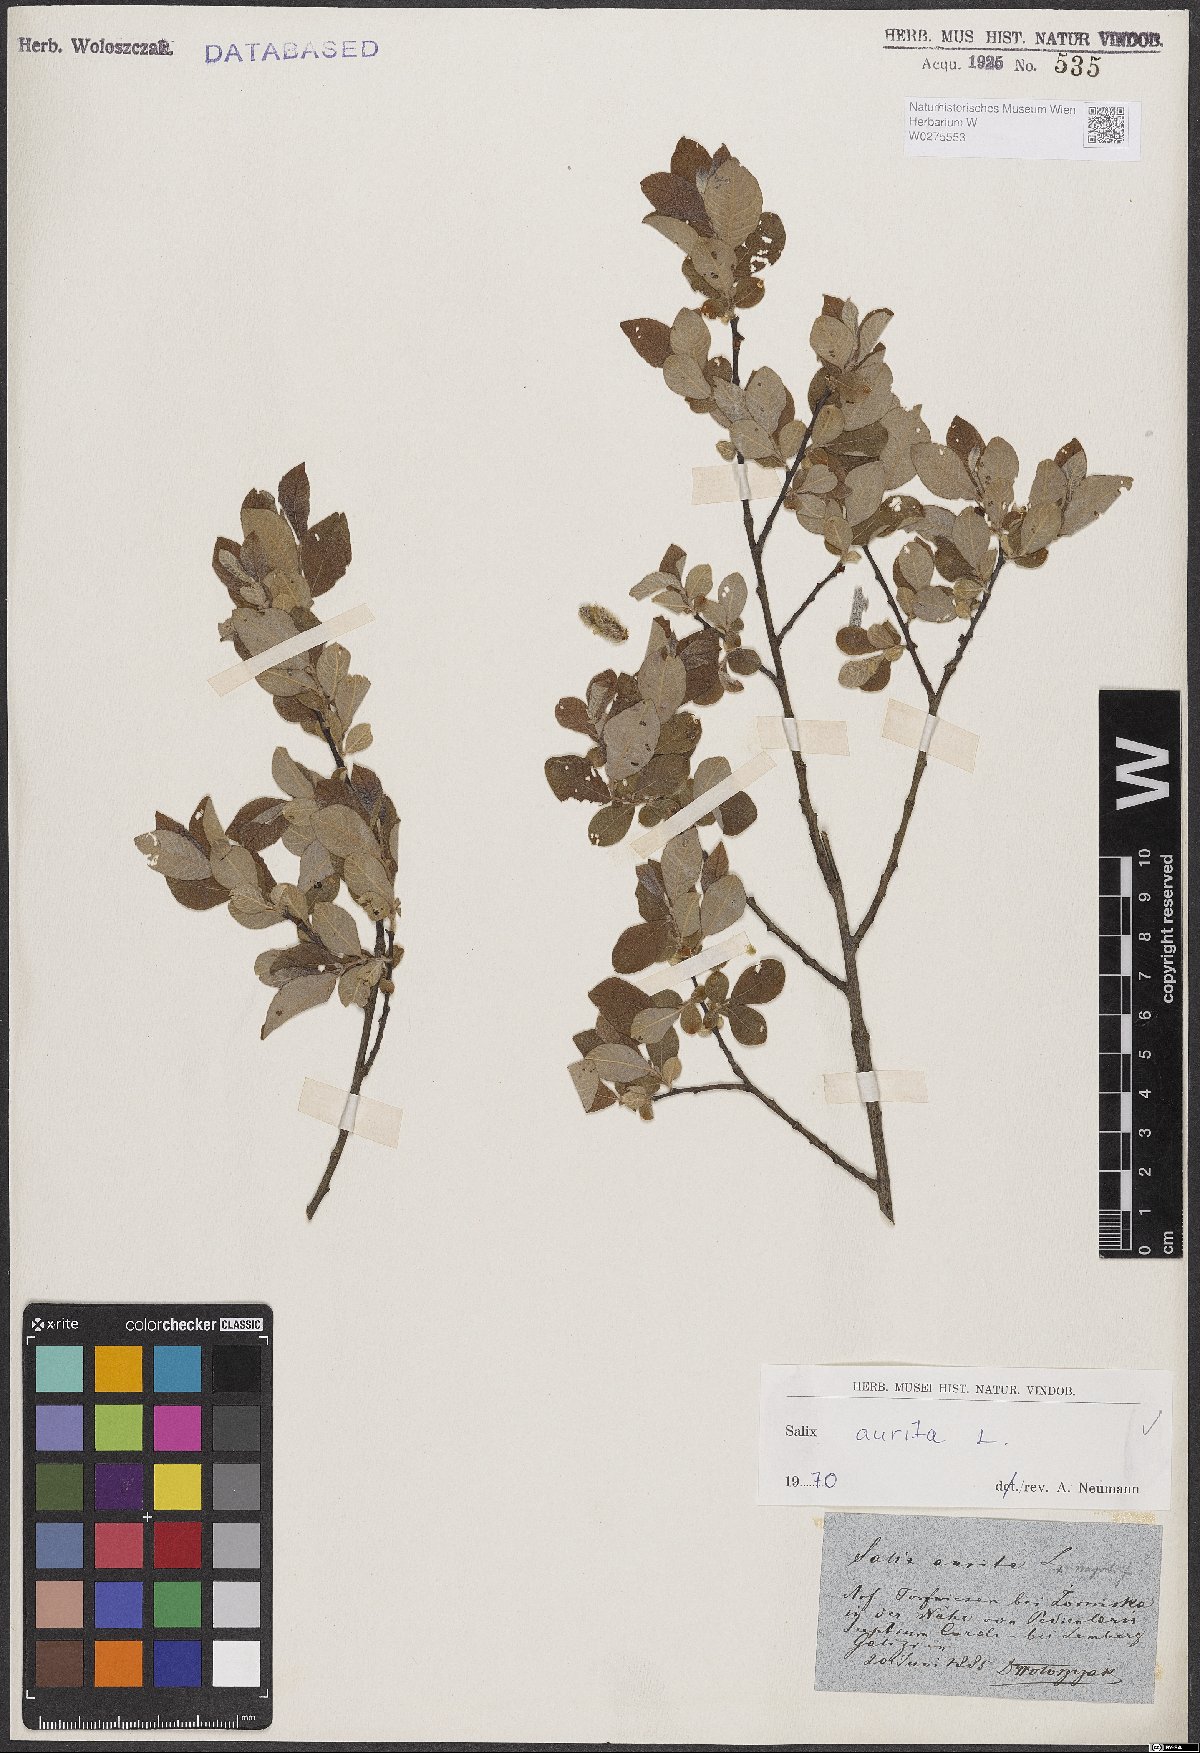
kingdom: Plantae
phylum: Tracheophyta
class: Magnoliopsida
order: Malpighiales
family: Salicaceae
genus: Salix
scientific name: Salix aurita
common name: Eared willow
